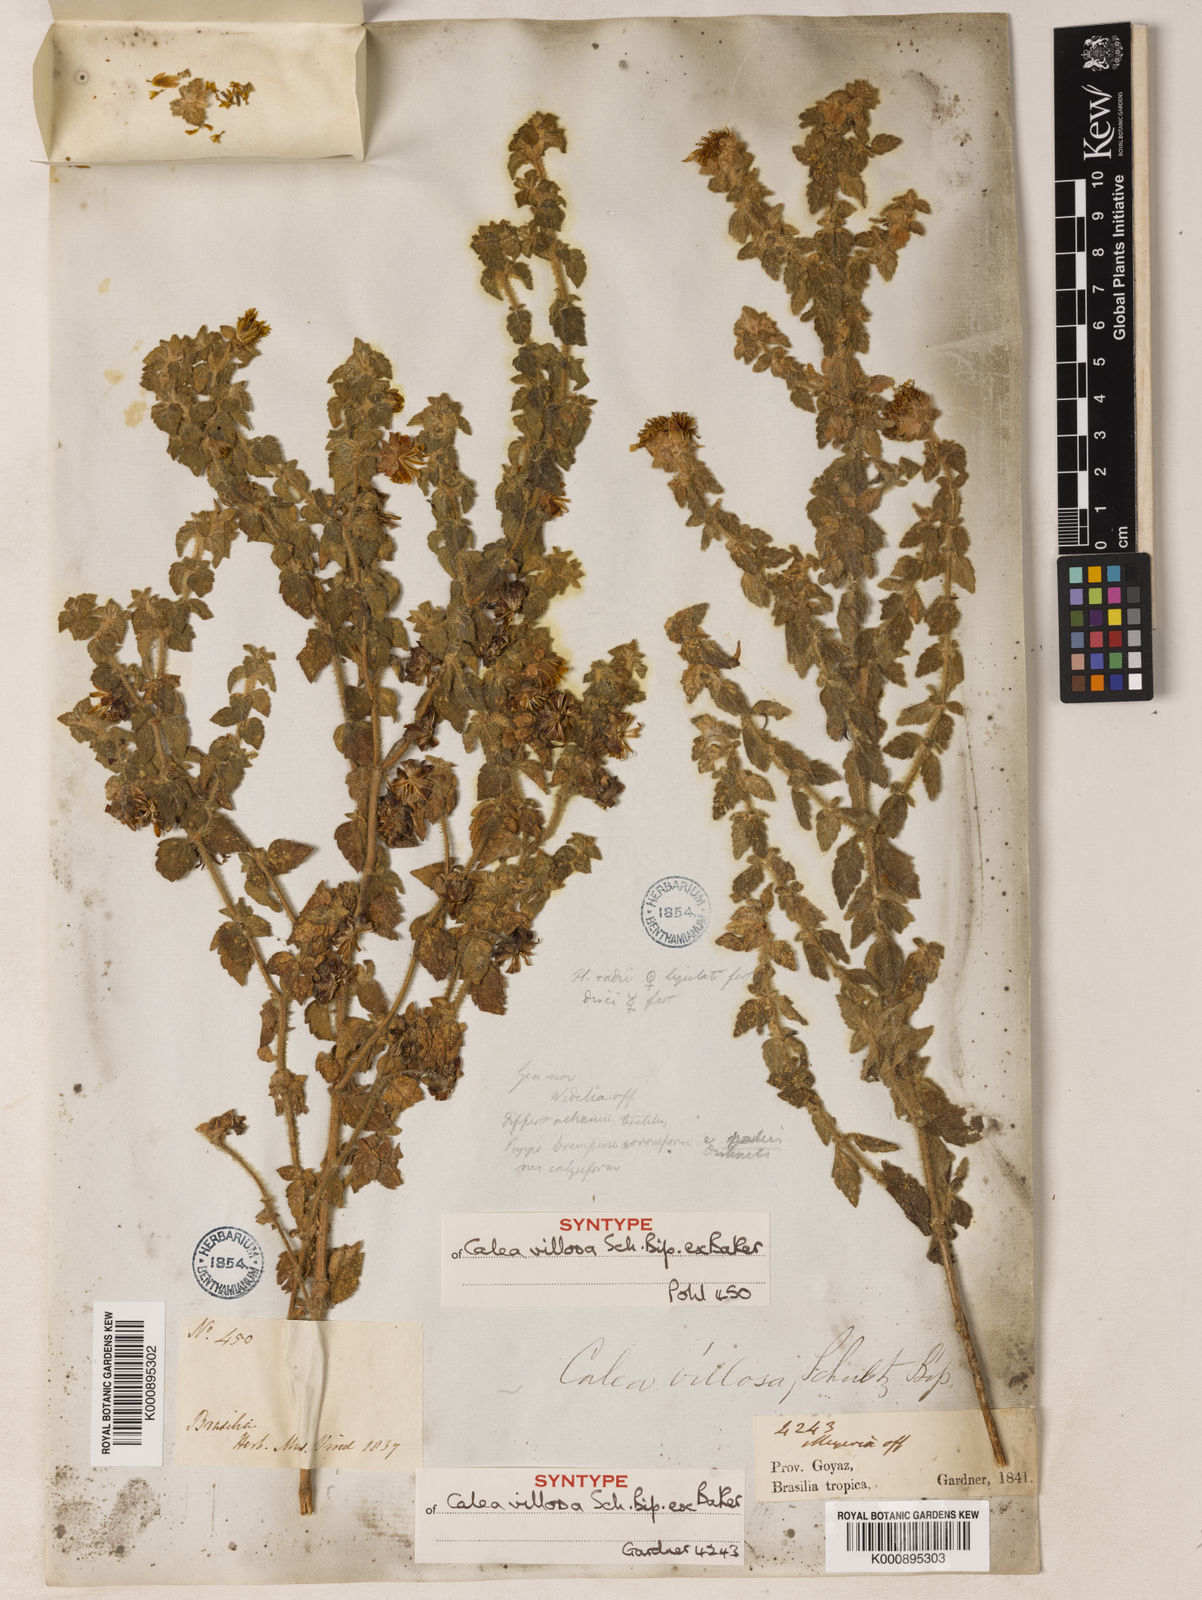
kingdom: Plantae
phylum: Tracheophyta
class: Magnoliopsida
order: Asterales
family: Asteraceae
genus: Calea
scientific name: Calea villosa
